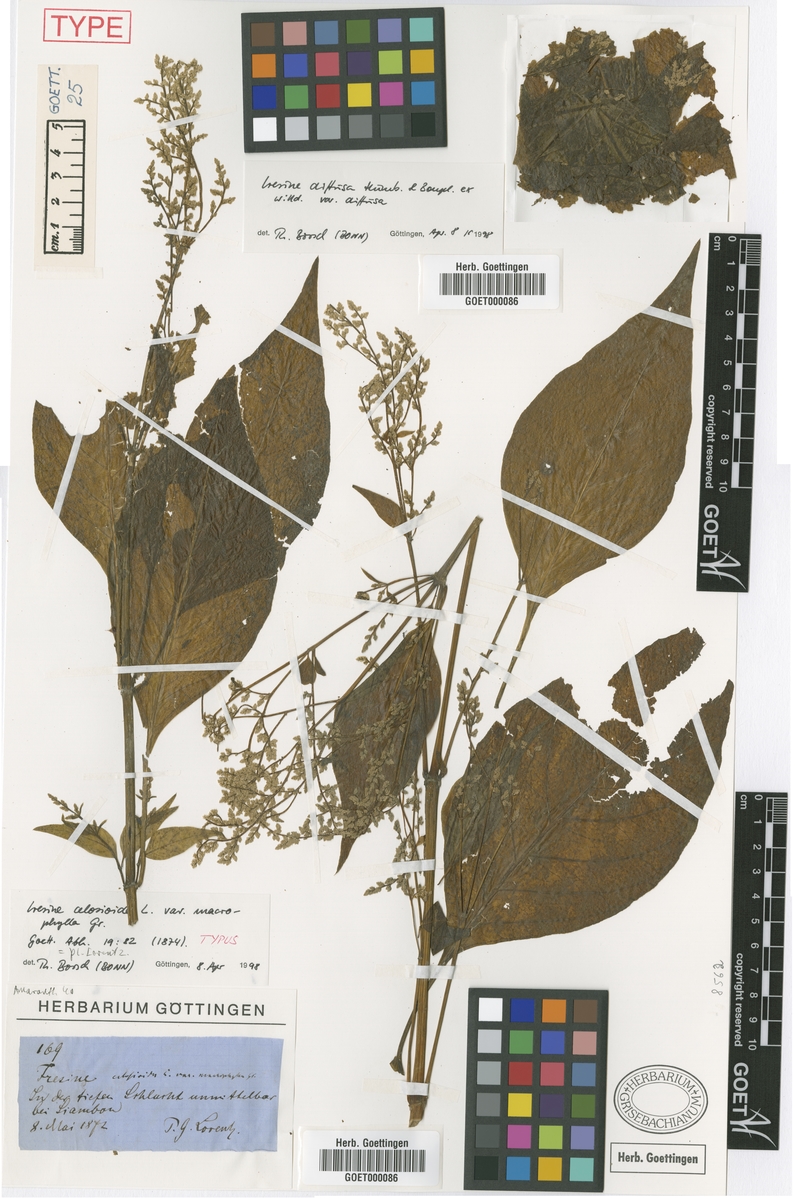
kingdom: Plantae
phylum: Tracheophyta
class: Magnoliopsida
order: Caryophyllales
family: Amaranthaceae
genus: Iresine
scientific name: Iresine diffusa
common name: Juba's-bush
